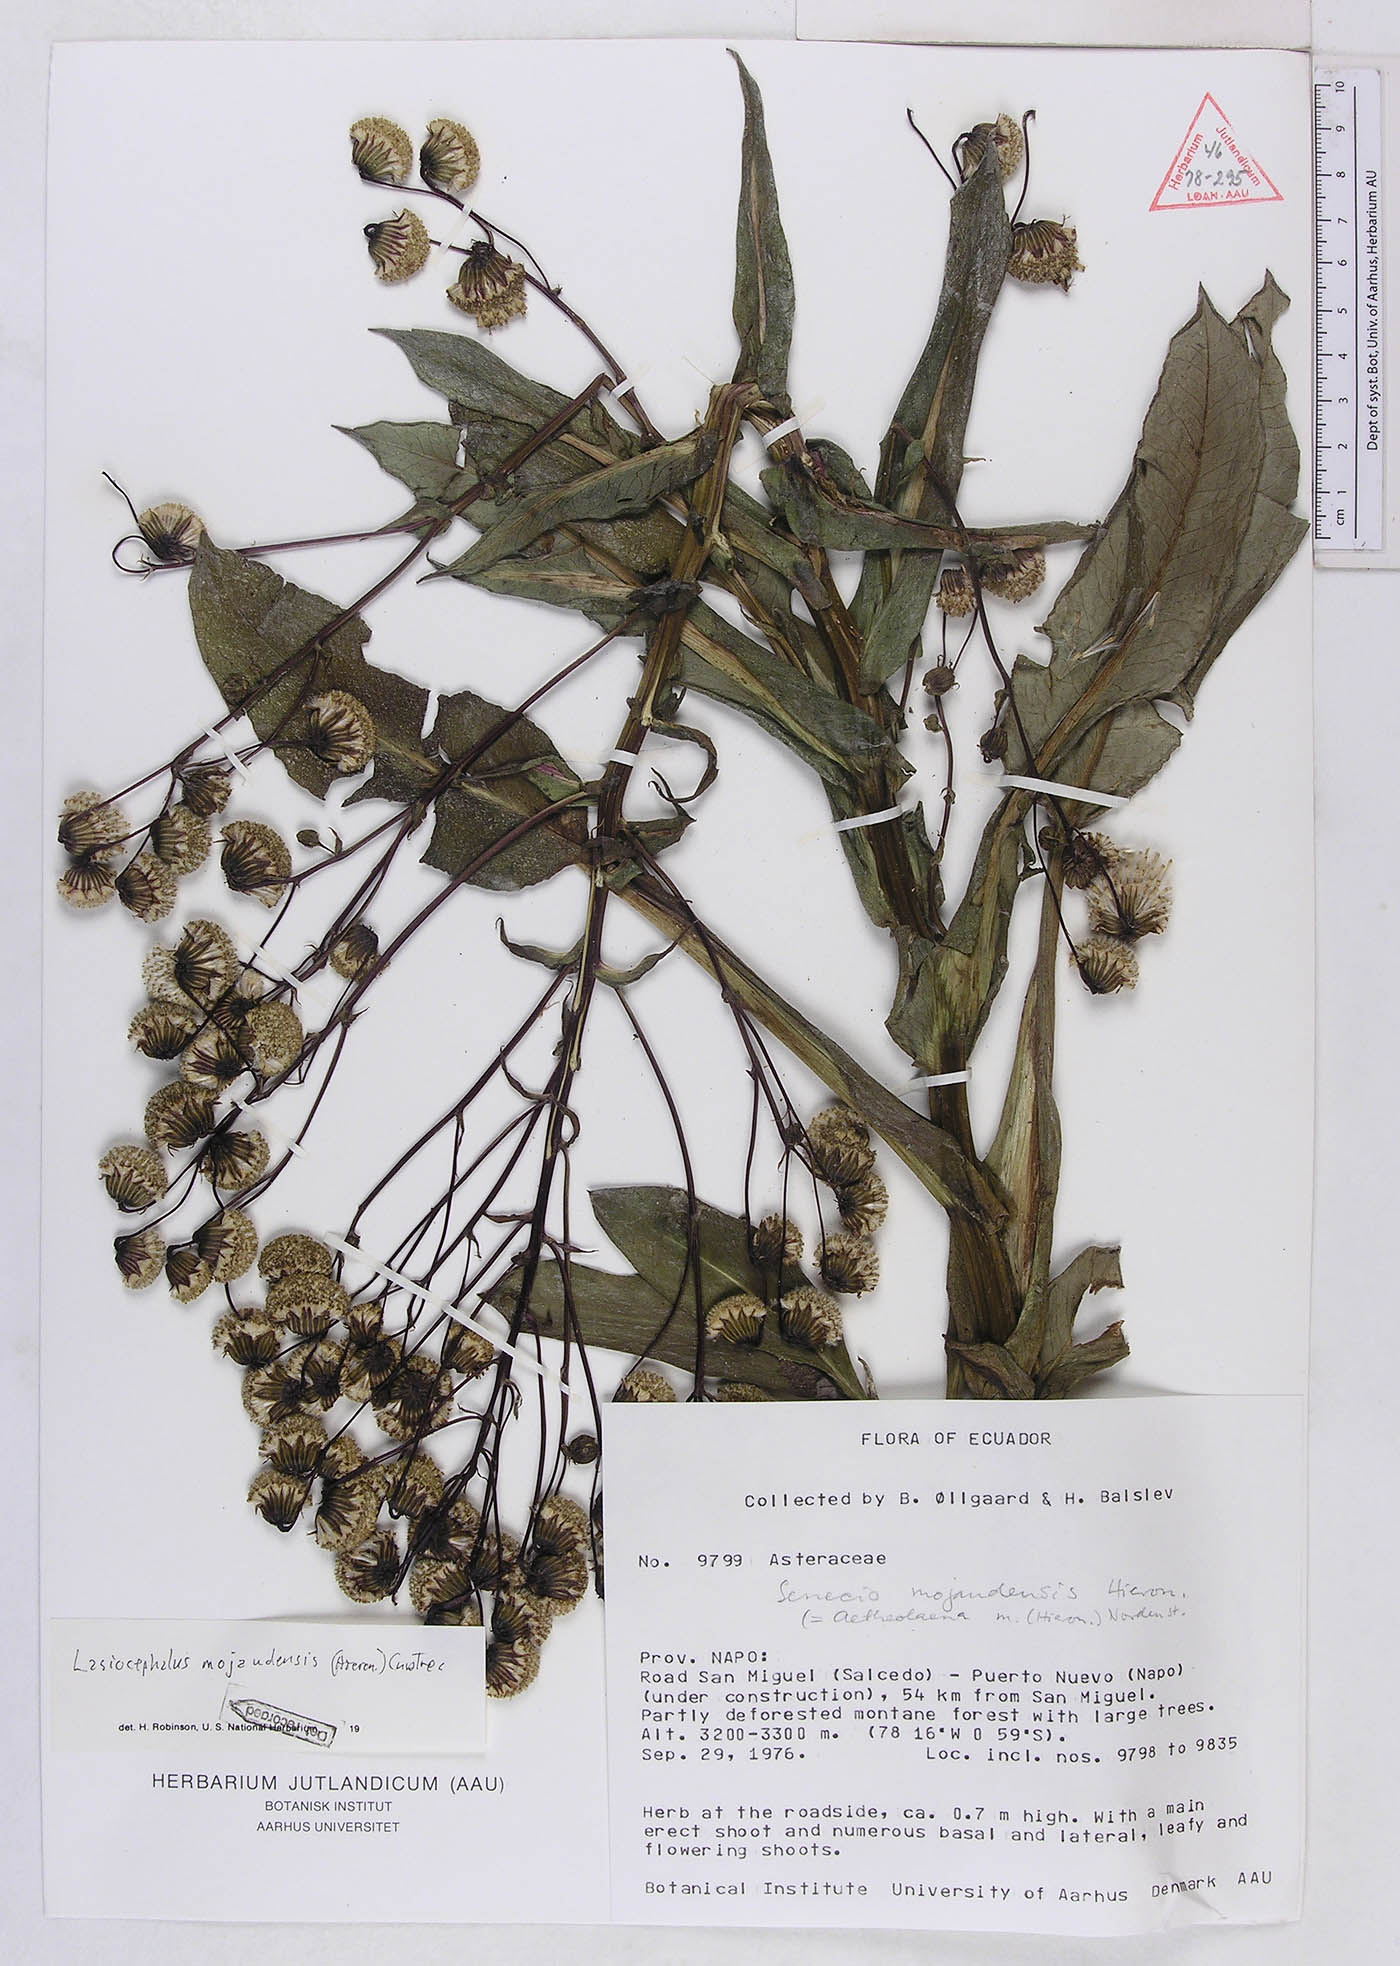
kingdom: Plantae
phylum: Tracheophyta
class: Magnoliopsida
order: Asterales
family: Asteraceae
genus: Aetheolaena
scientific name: Aetheolaena mojandensis
